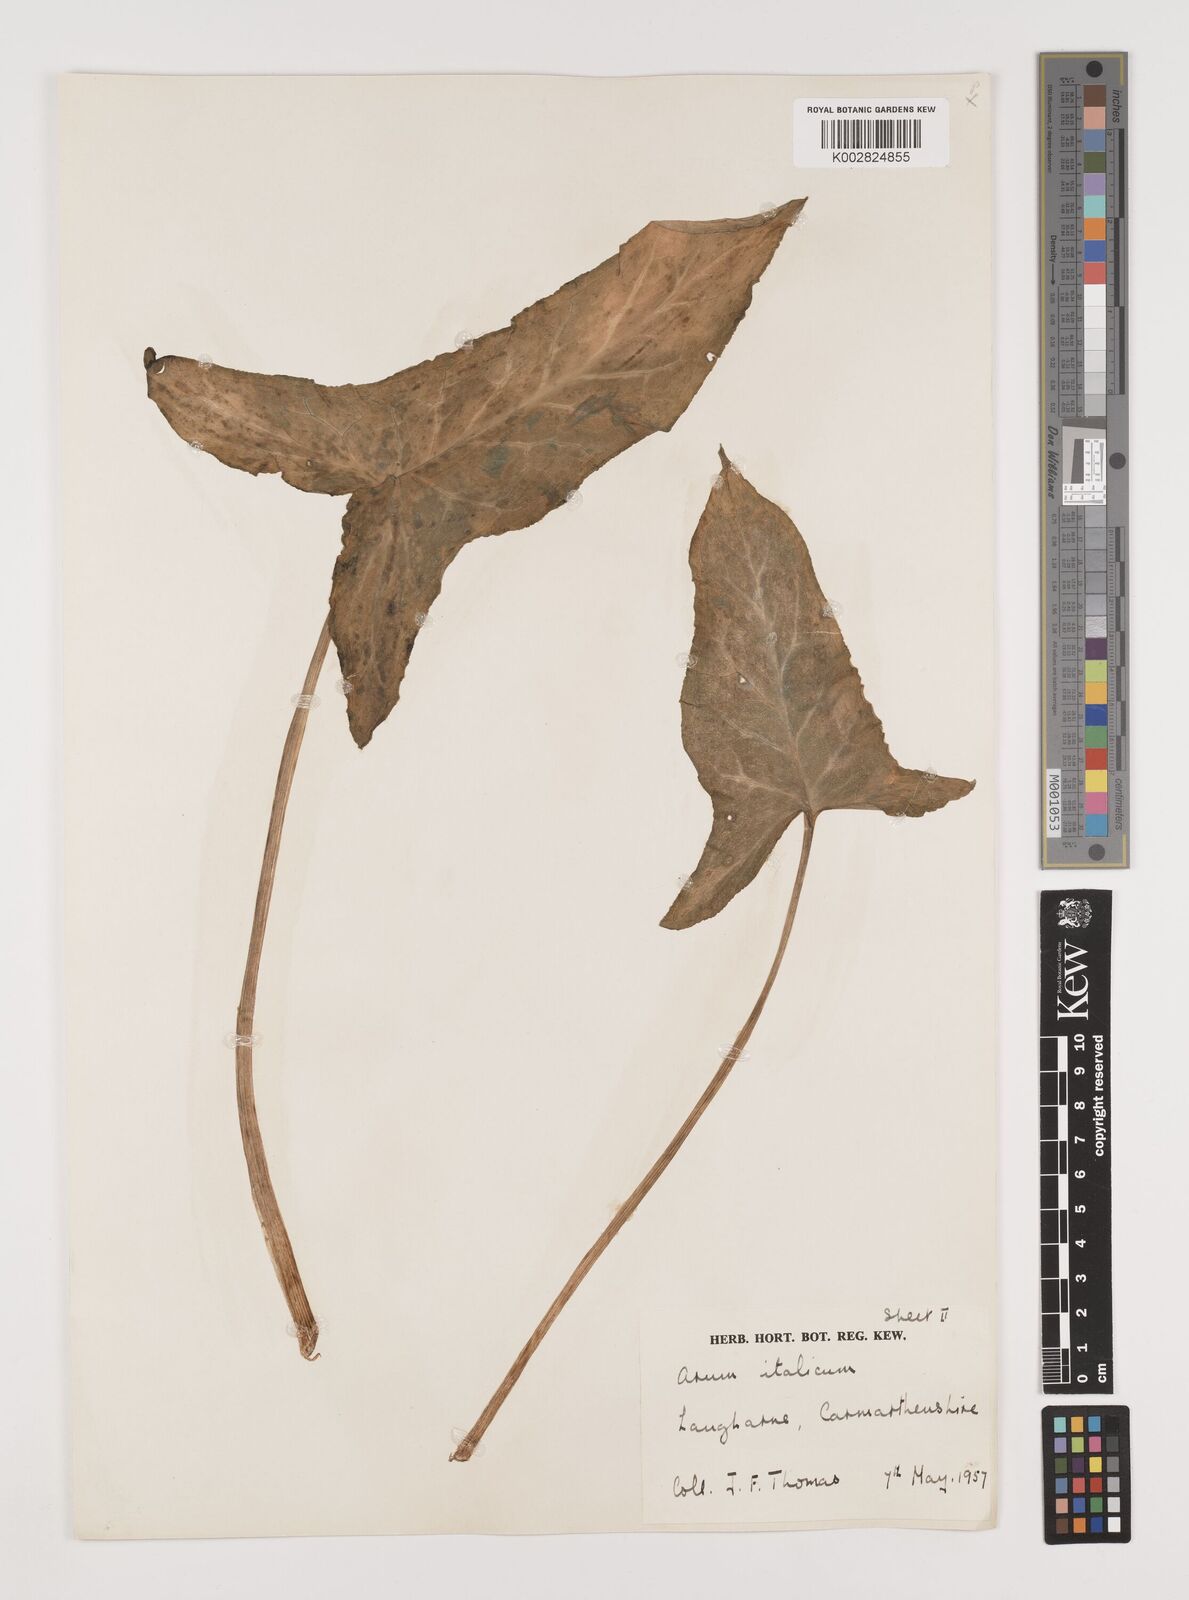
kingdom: Plantae
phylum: Tracheophyta
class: Liliopsida
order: Alismatales
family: Araceae
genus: Arum
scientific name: Arum italicum
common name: Italian lords-and-ladies
